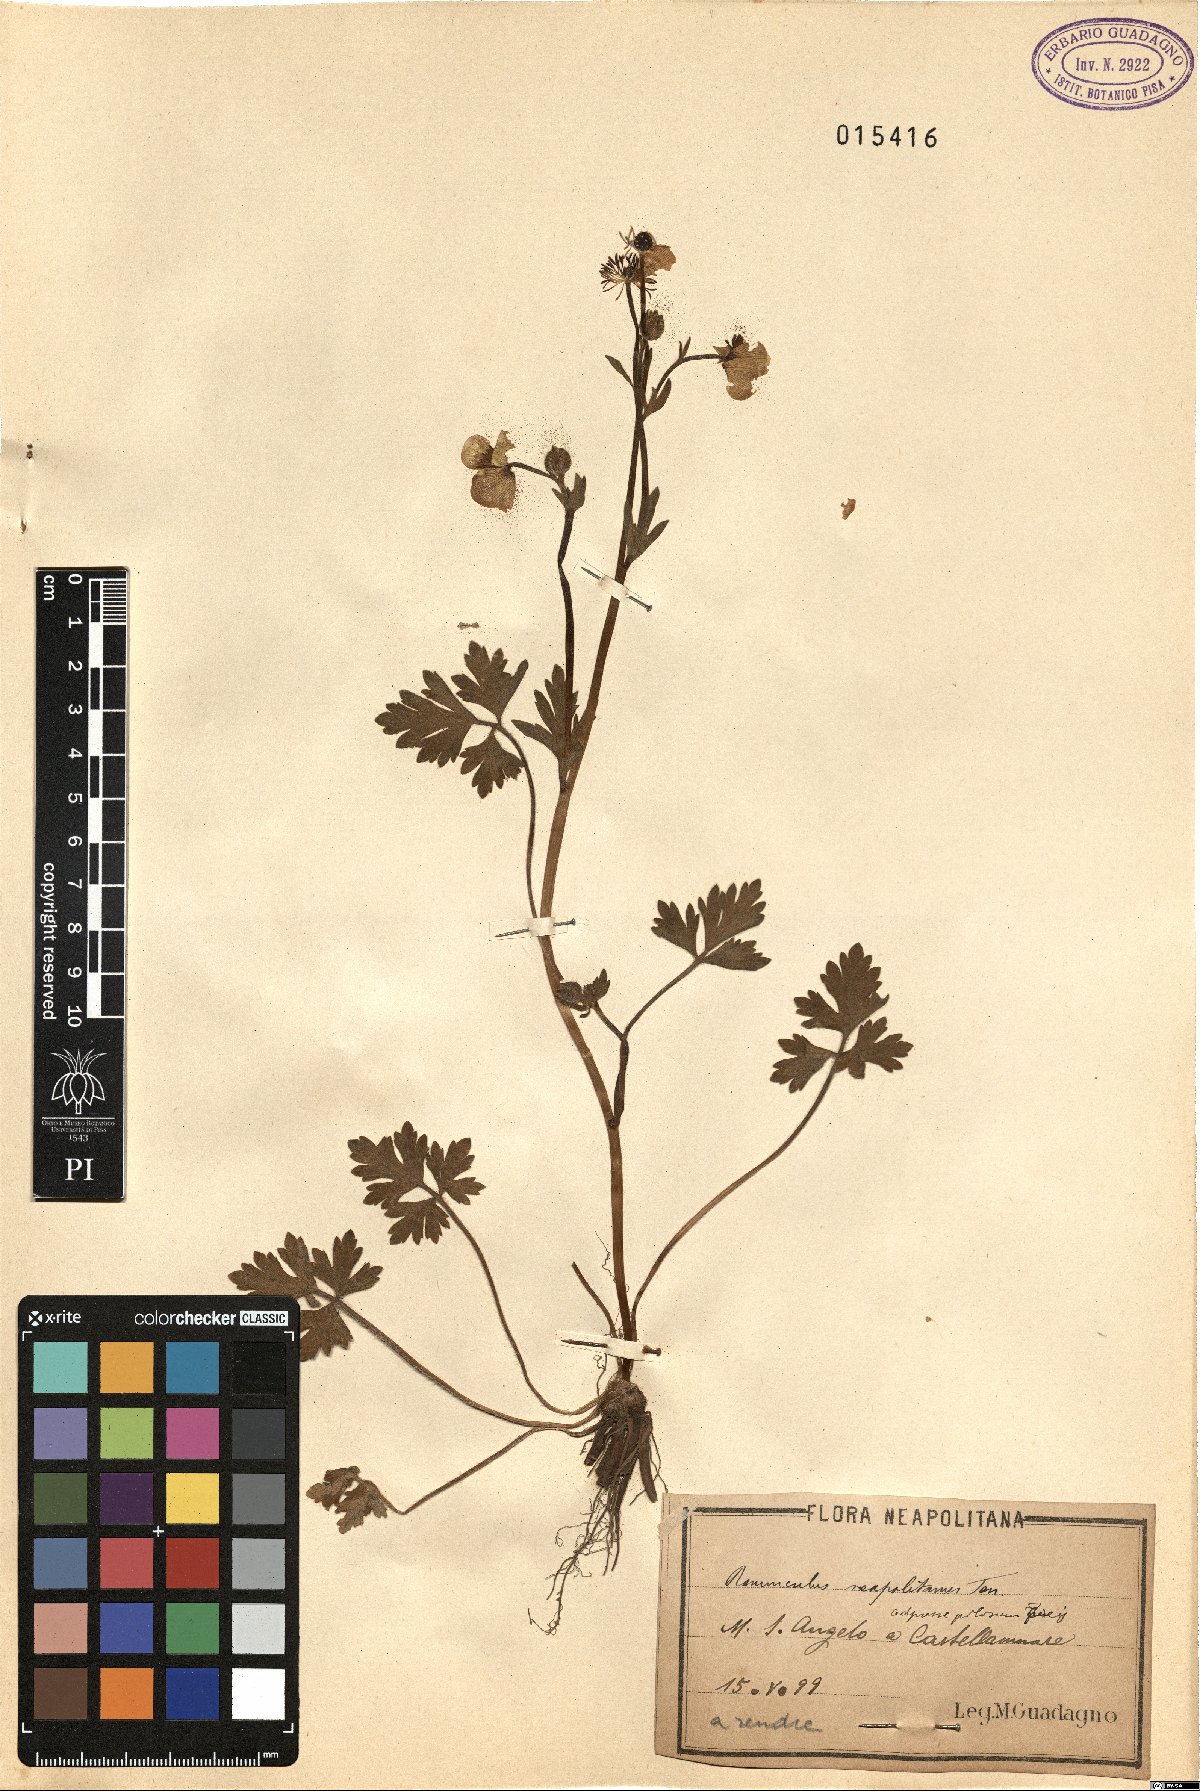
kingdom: Plantae
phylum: Tracheophyta
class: Magnoliopsida
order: Ranunculales
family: Ranunculaceae
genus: Ranunculus
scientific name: Ranunculus neapolitanus
